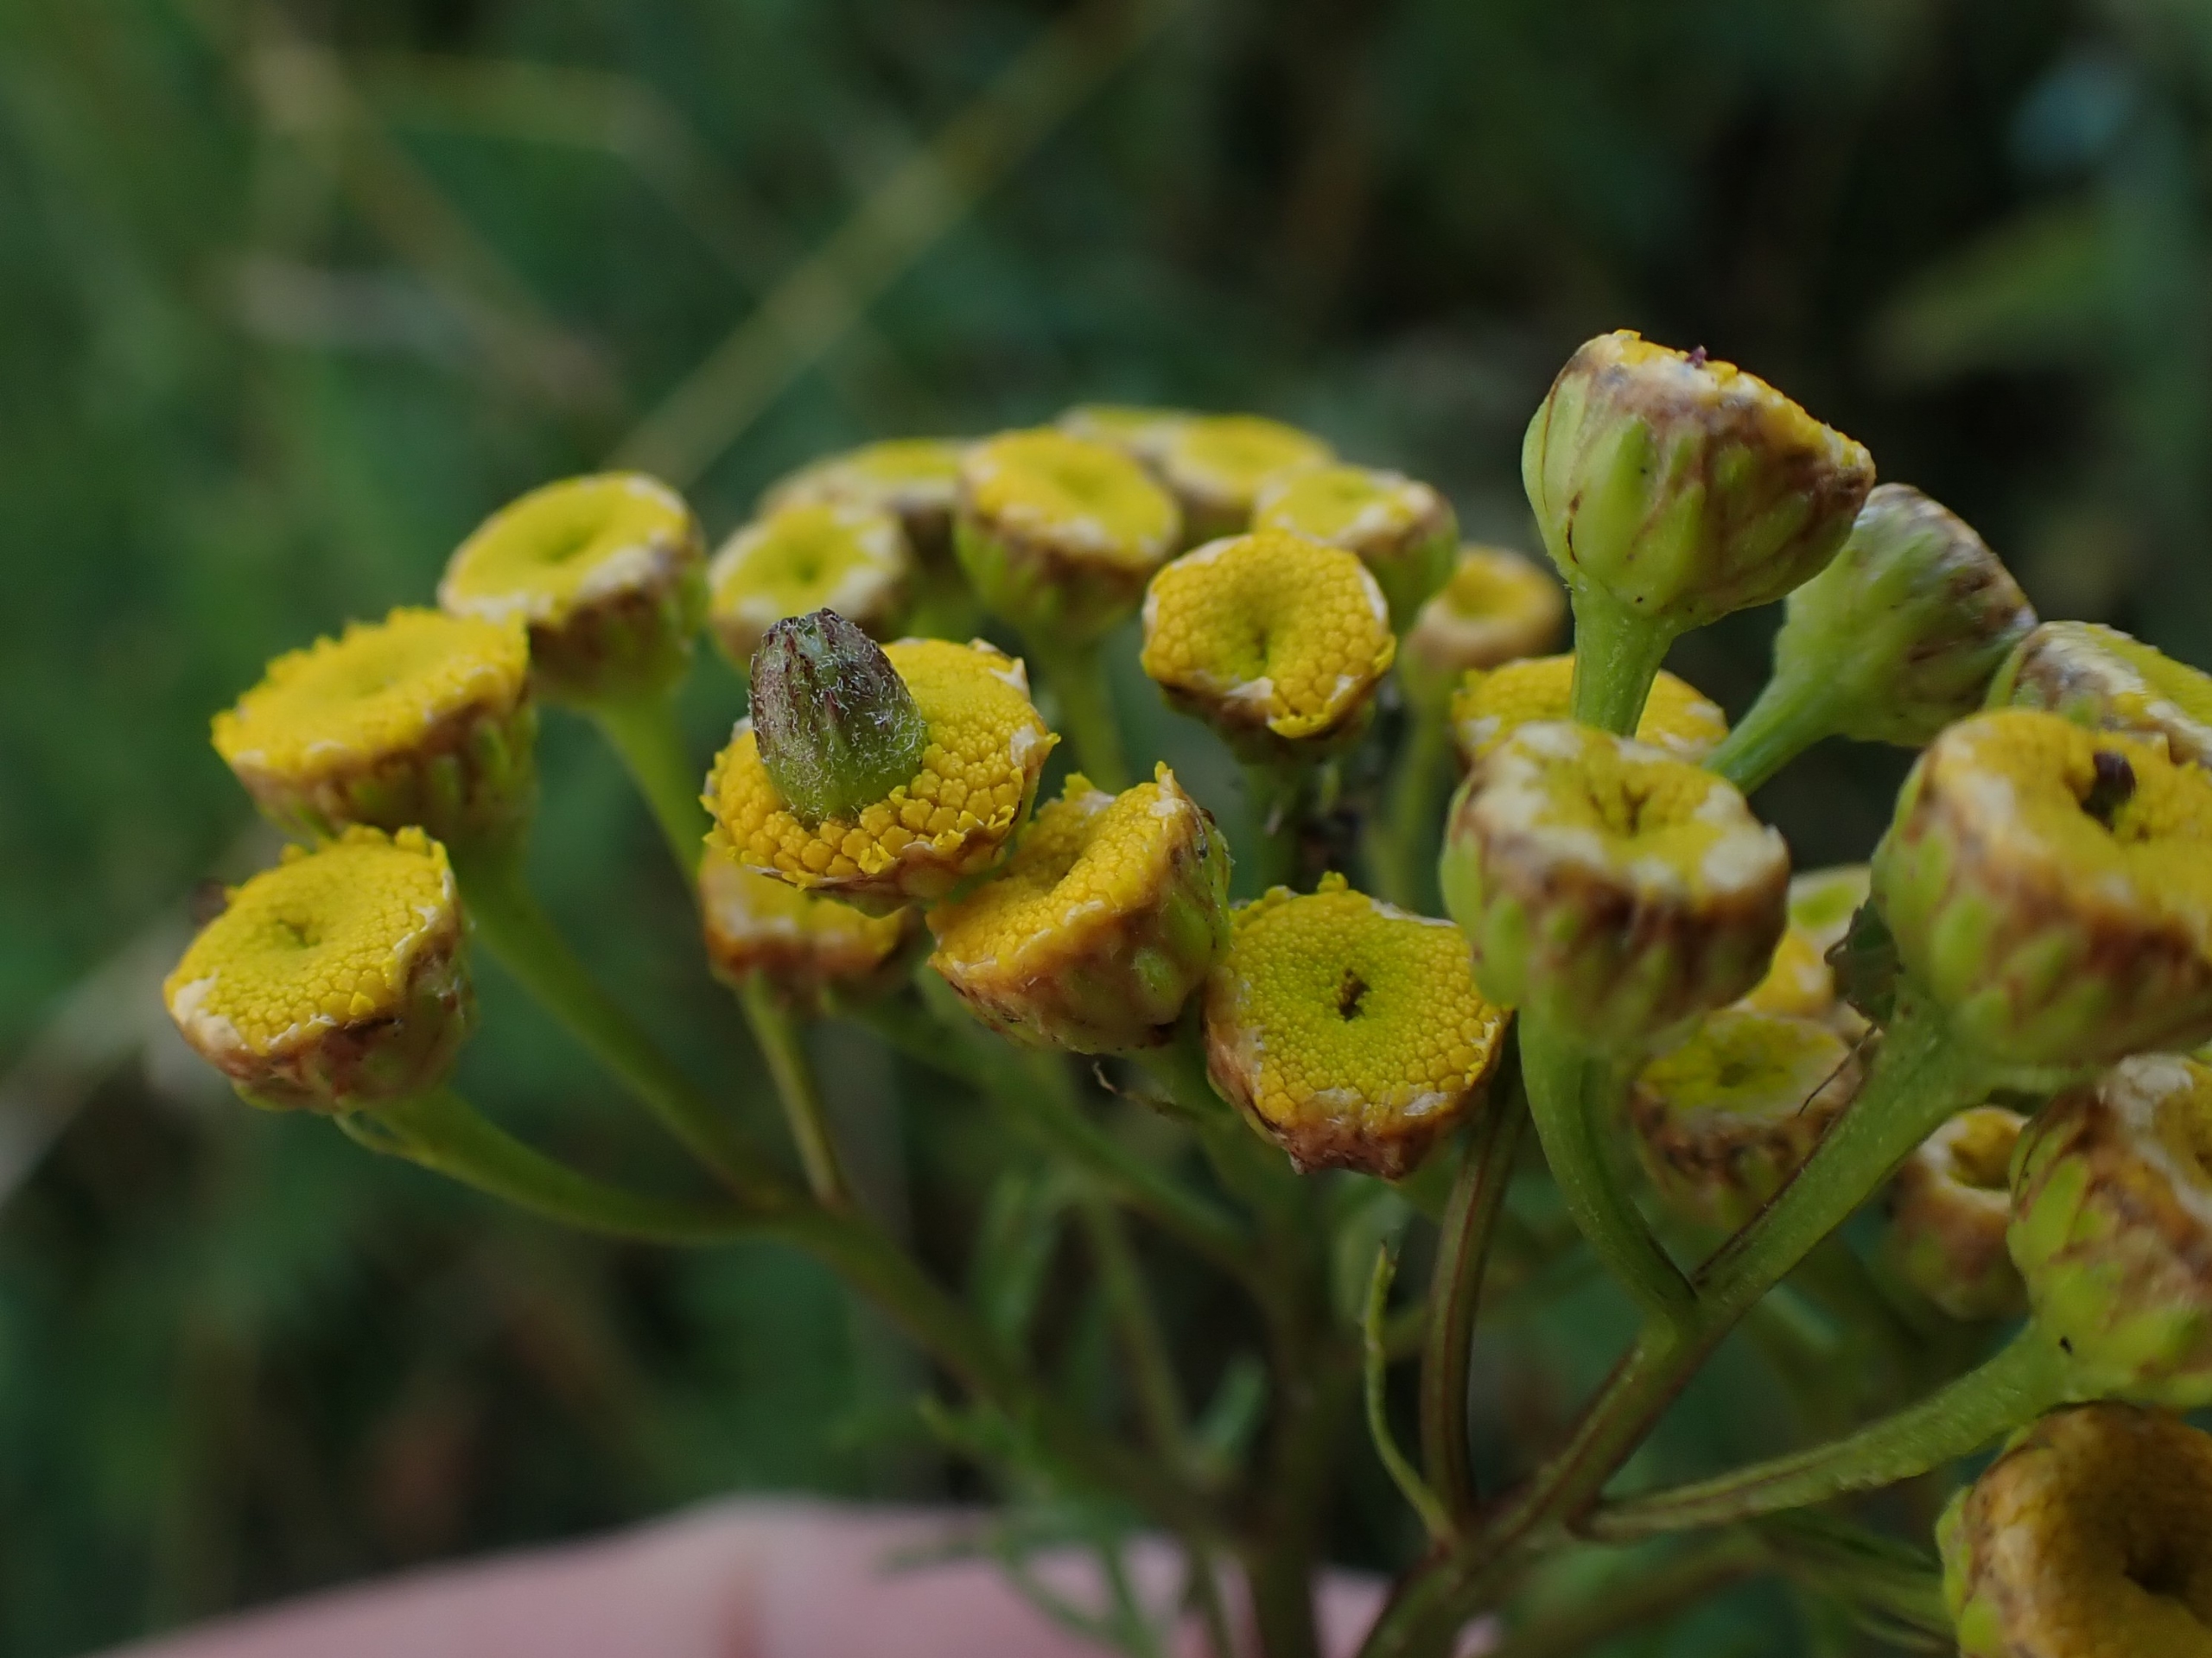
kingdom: Animalia
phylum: Arthropoda
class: Insecta
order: Diptera
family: Cecidomyiidae
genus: Rhopalomyia
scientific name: Rhopalomyia tanaceticolus
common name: Rejnfangalmyg
